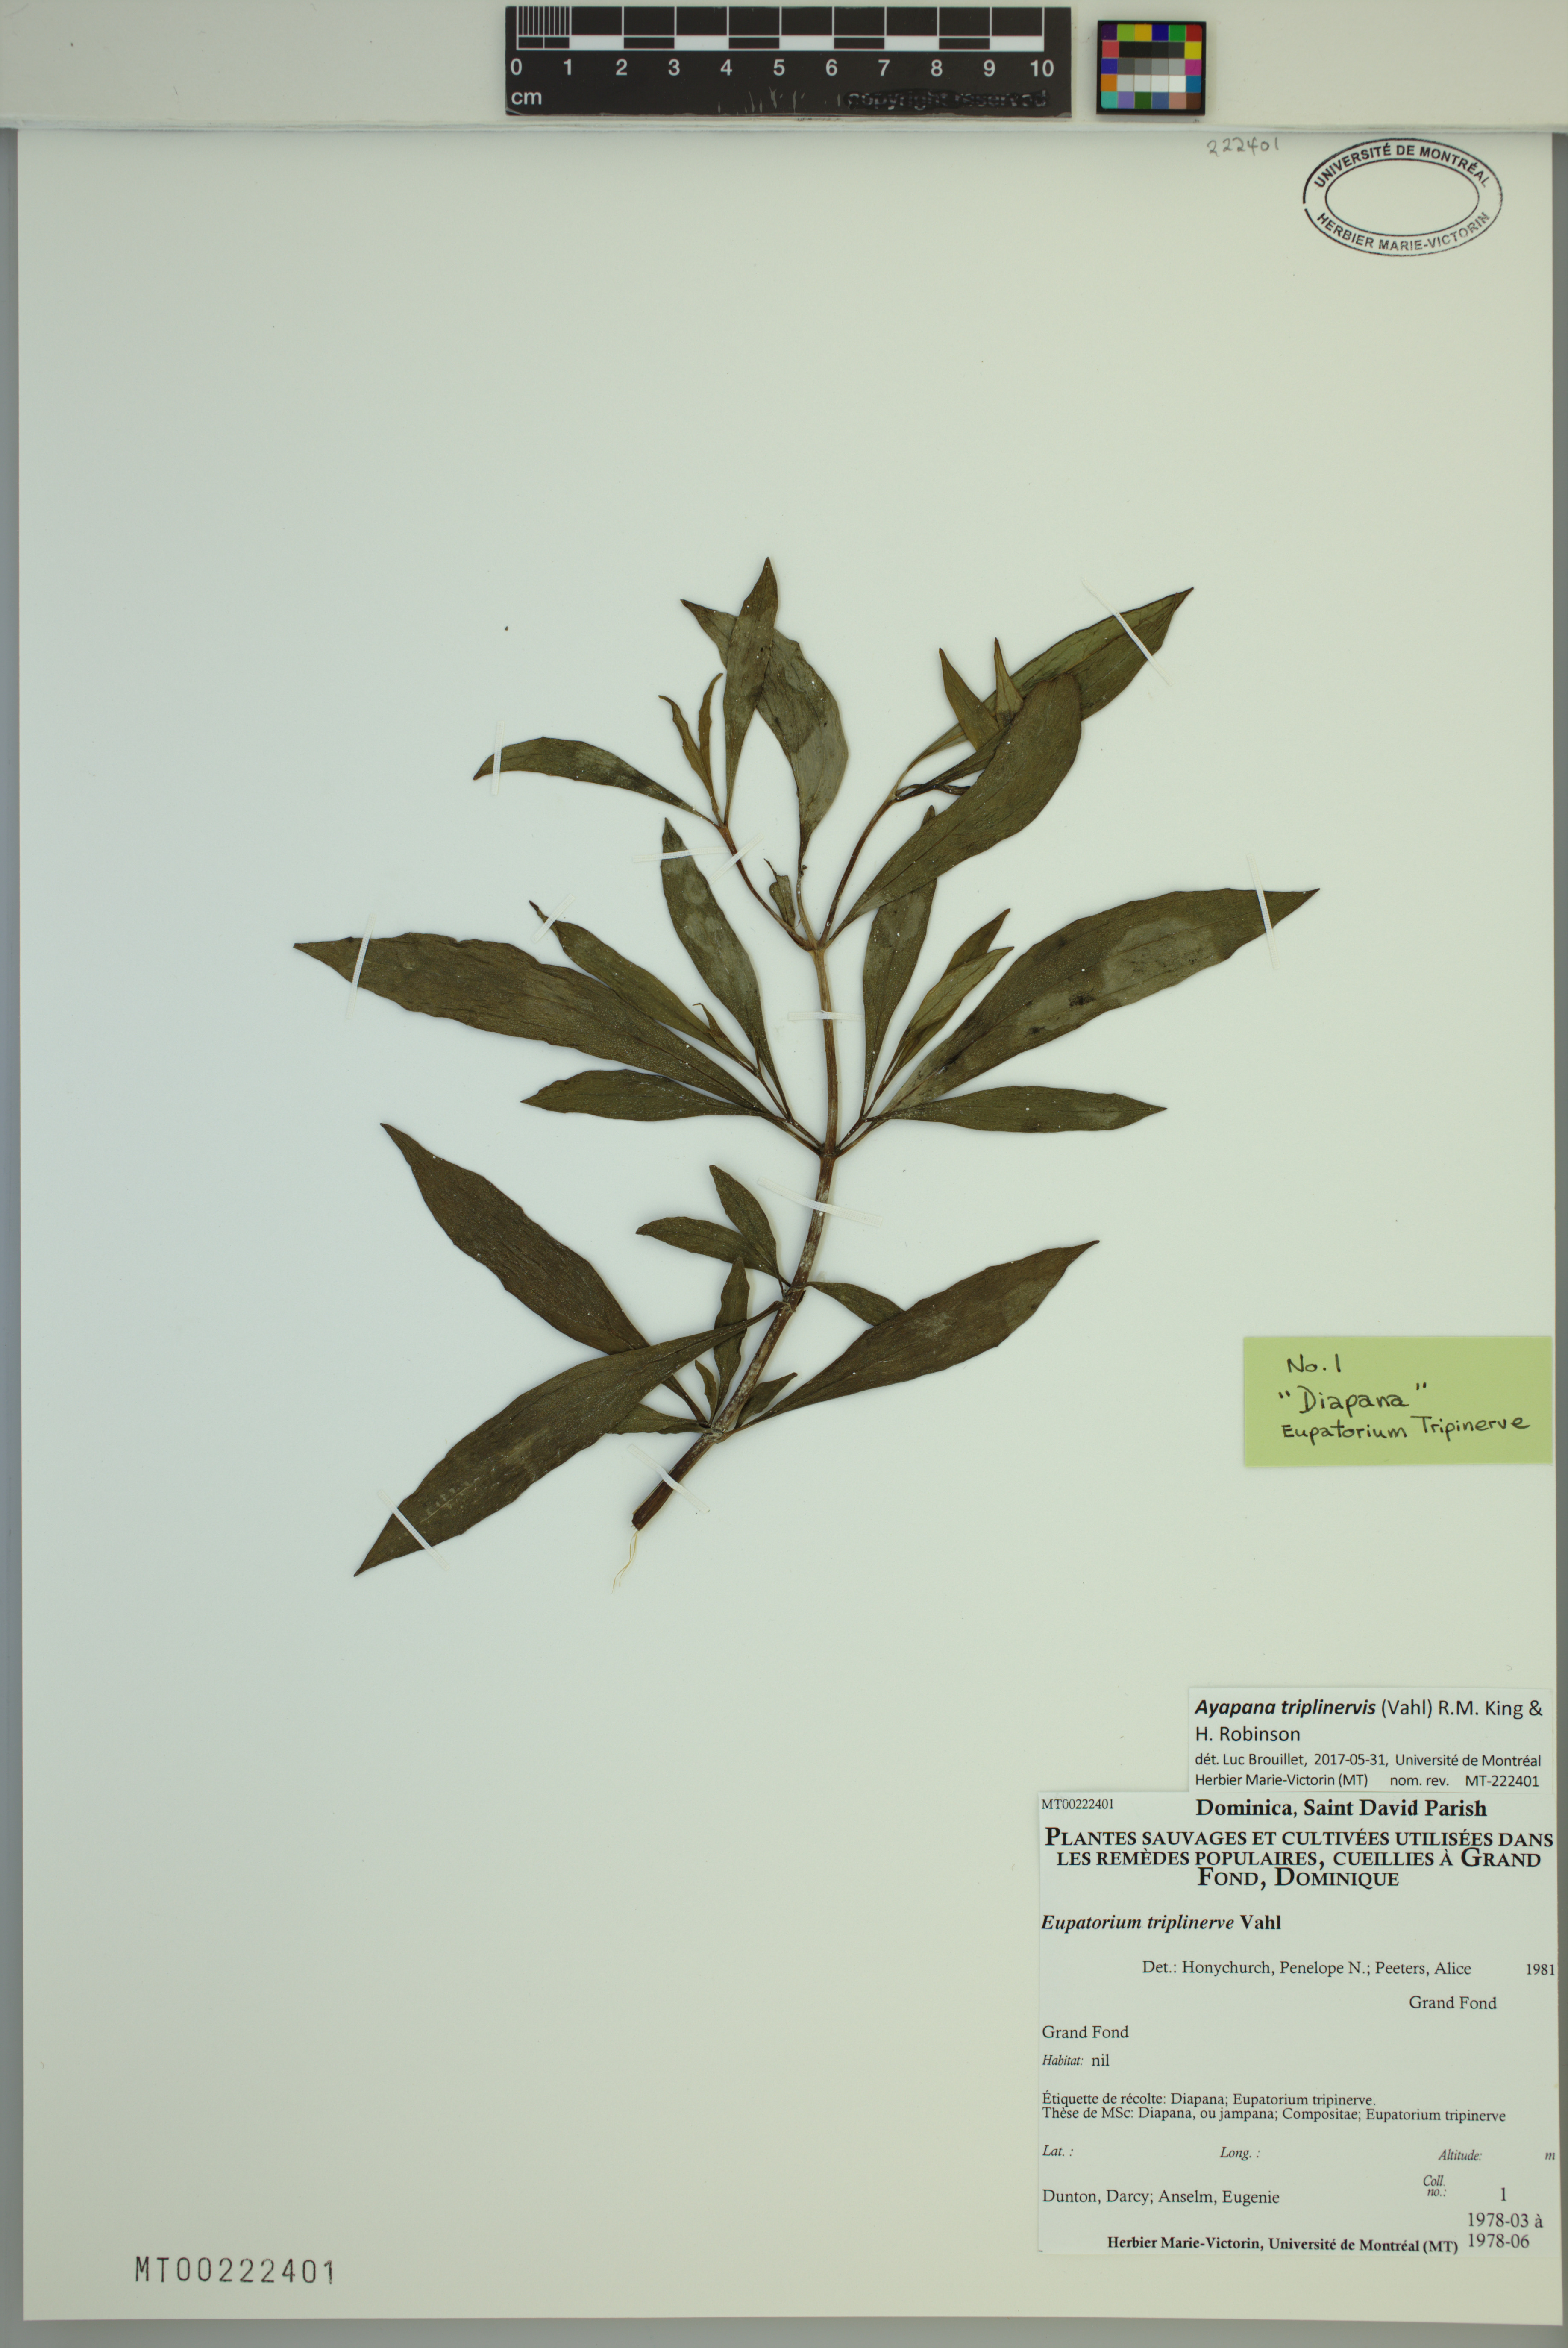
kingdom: Plantae
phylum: Tracheophyta
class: Magnoliopsida
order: Asterales
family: Asteraceae
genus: Ayapana
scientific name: Ayapana triplinervis
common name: Triplinerved eupatorium
